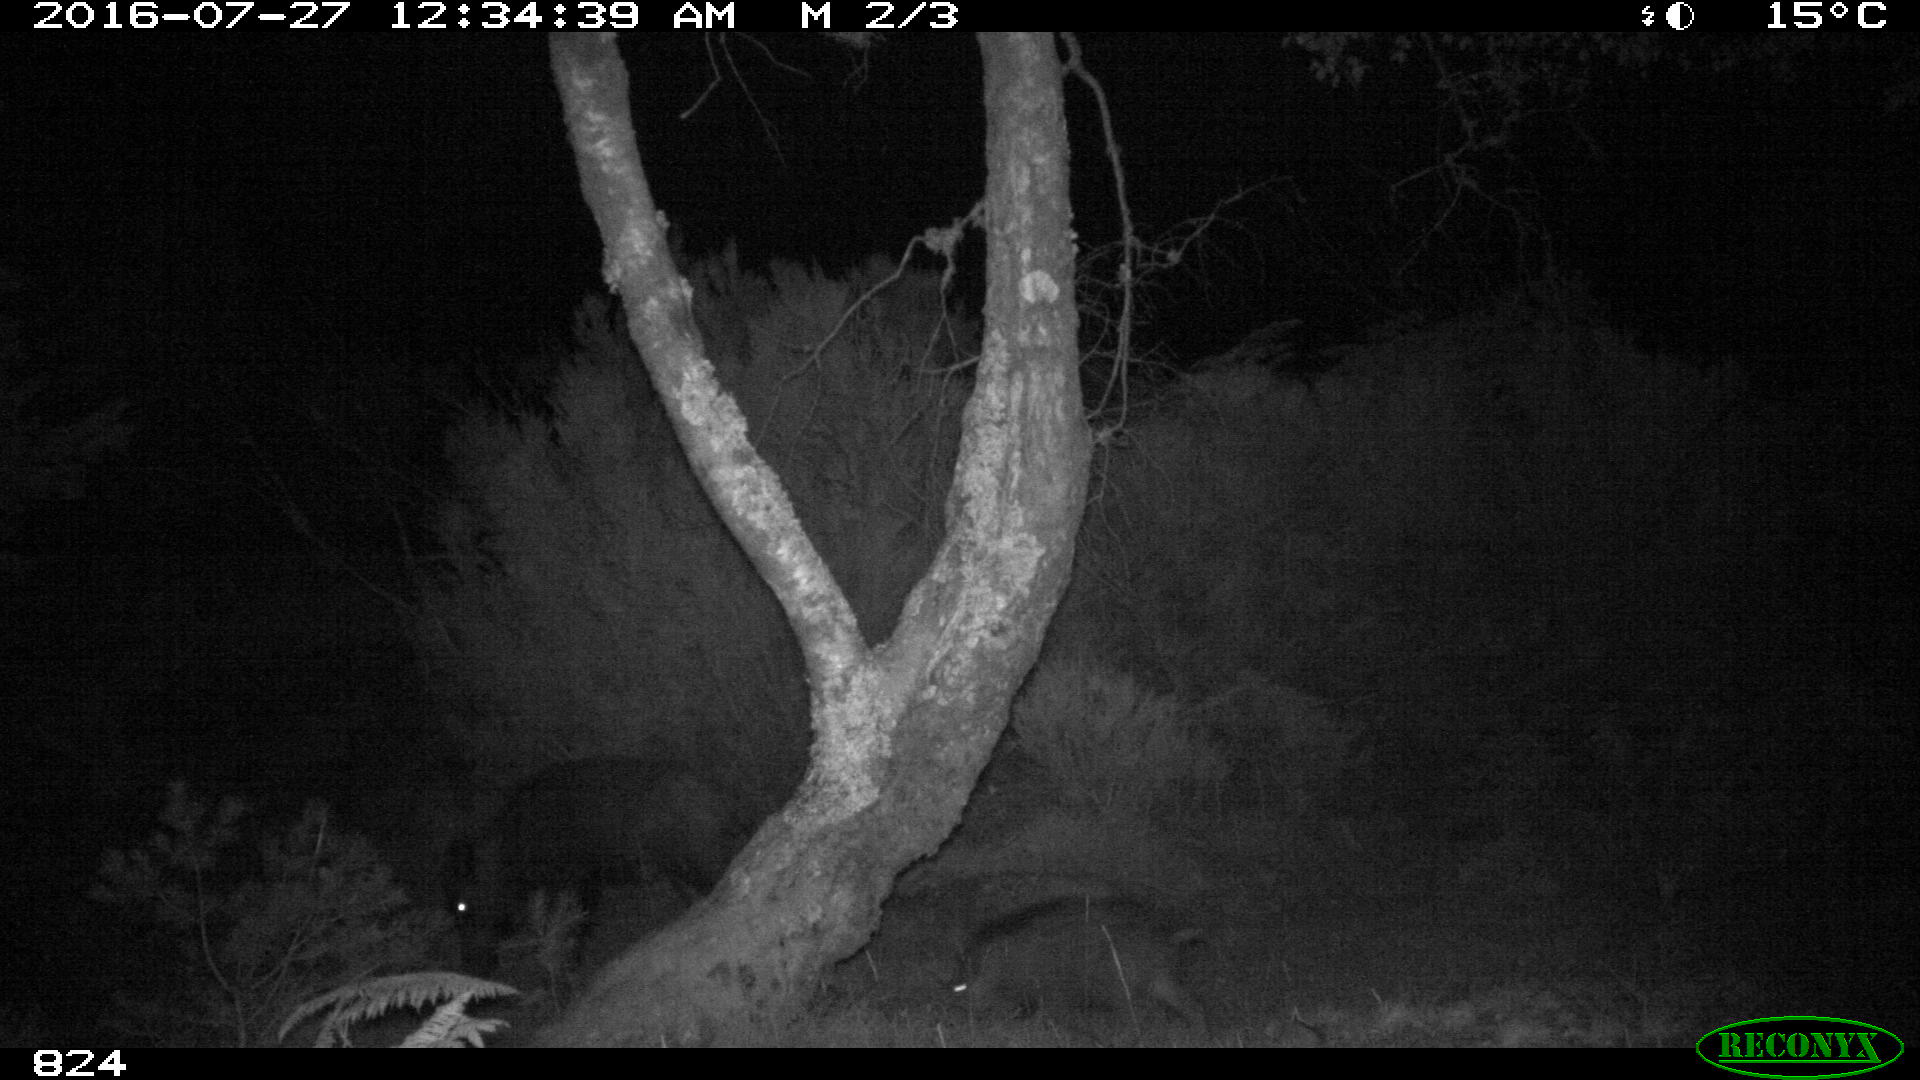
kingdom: Animalia
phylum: Chordata
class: Mammalia
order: Artiodactyla
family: Suidae
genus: Sus
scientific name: Sus scrofa
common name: Wild boar
